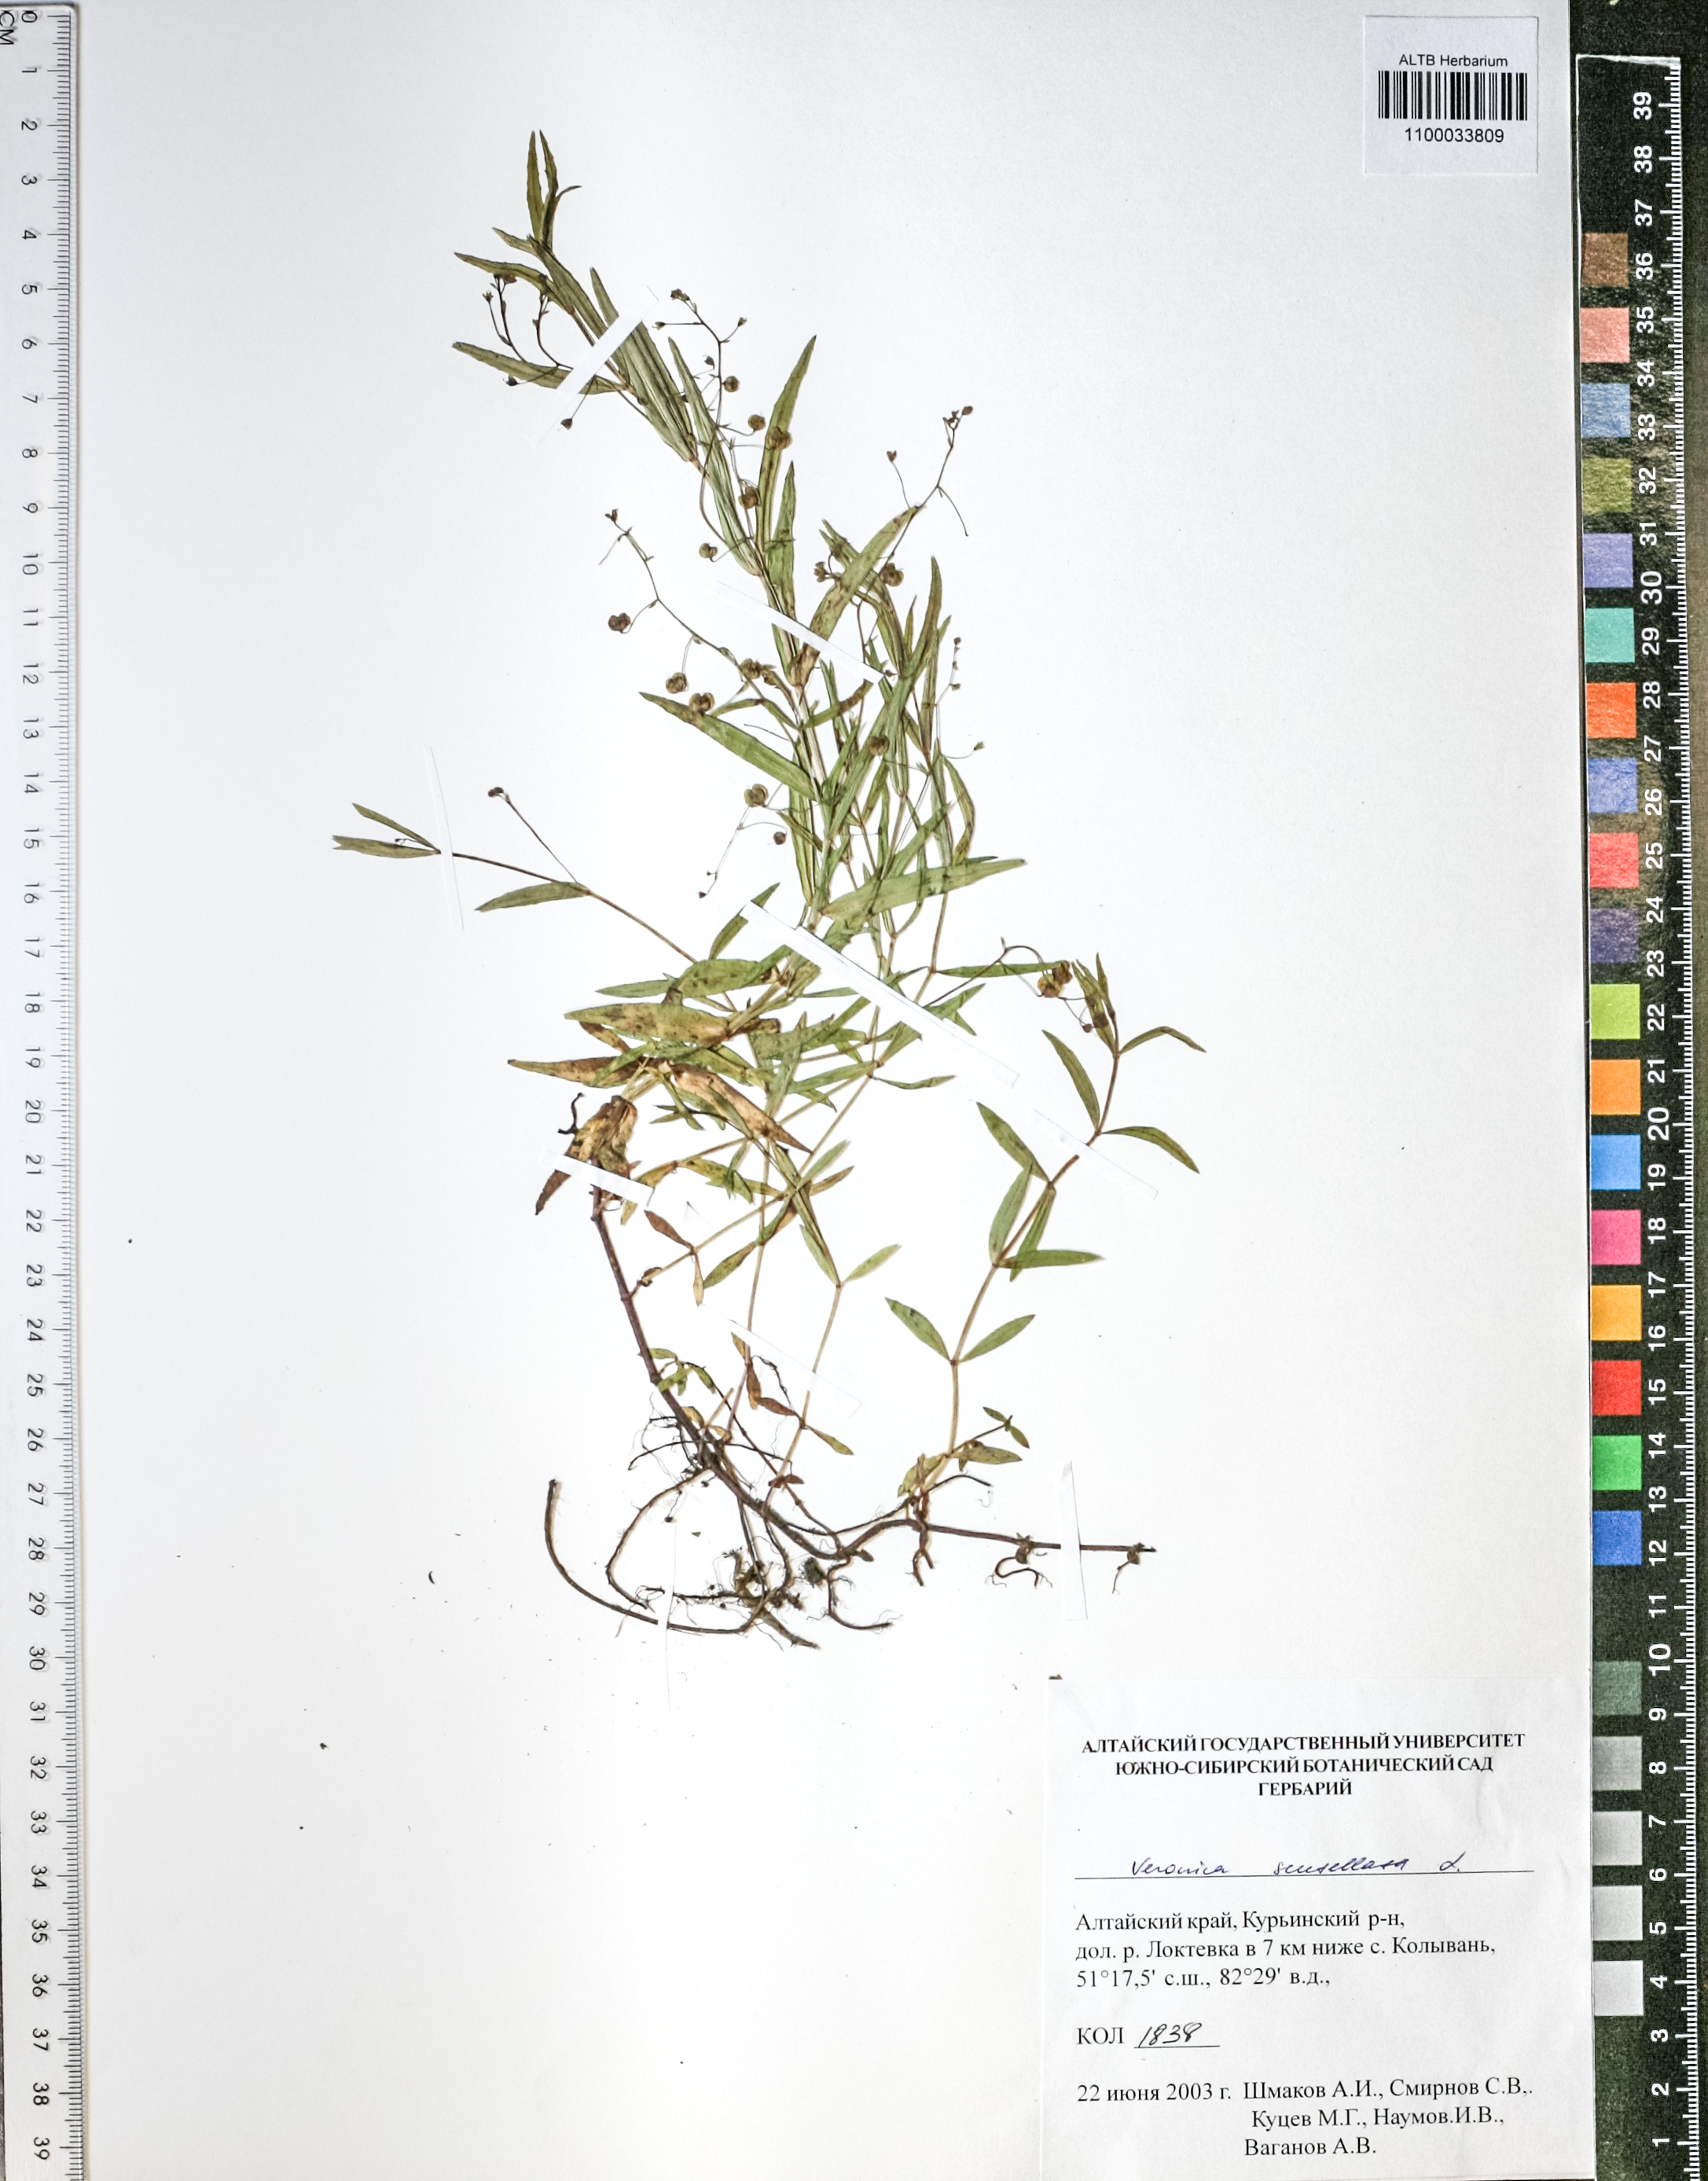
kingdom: Plantae
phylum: Tracheophyta
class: Magnoliopsida
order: Lamiales
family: Plantaginaceae
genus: Veronica
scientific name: Veronica scutellata
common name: Marsh speedwell
